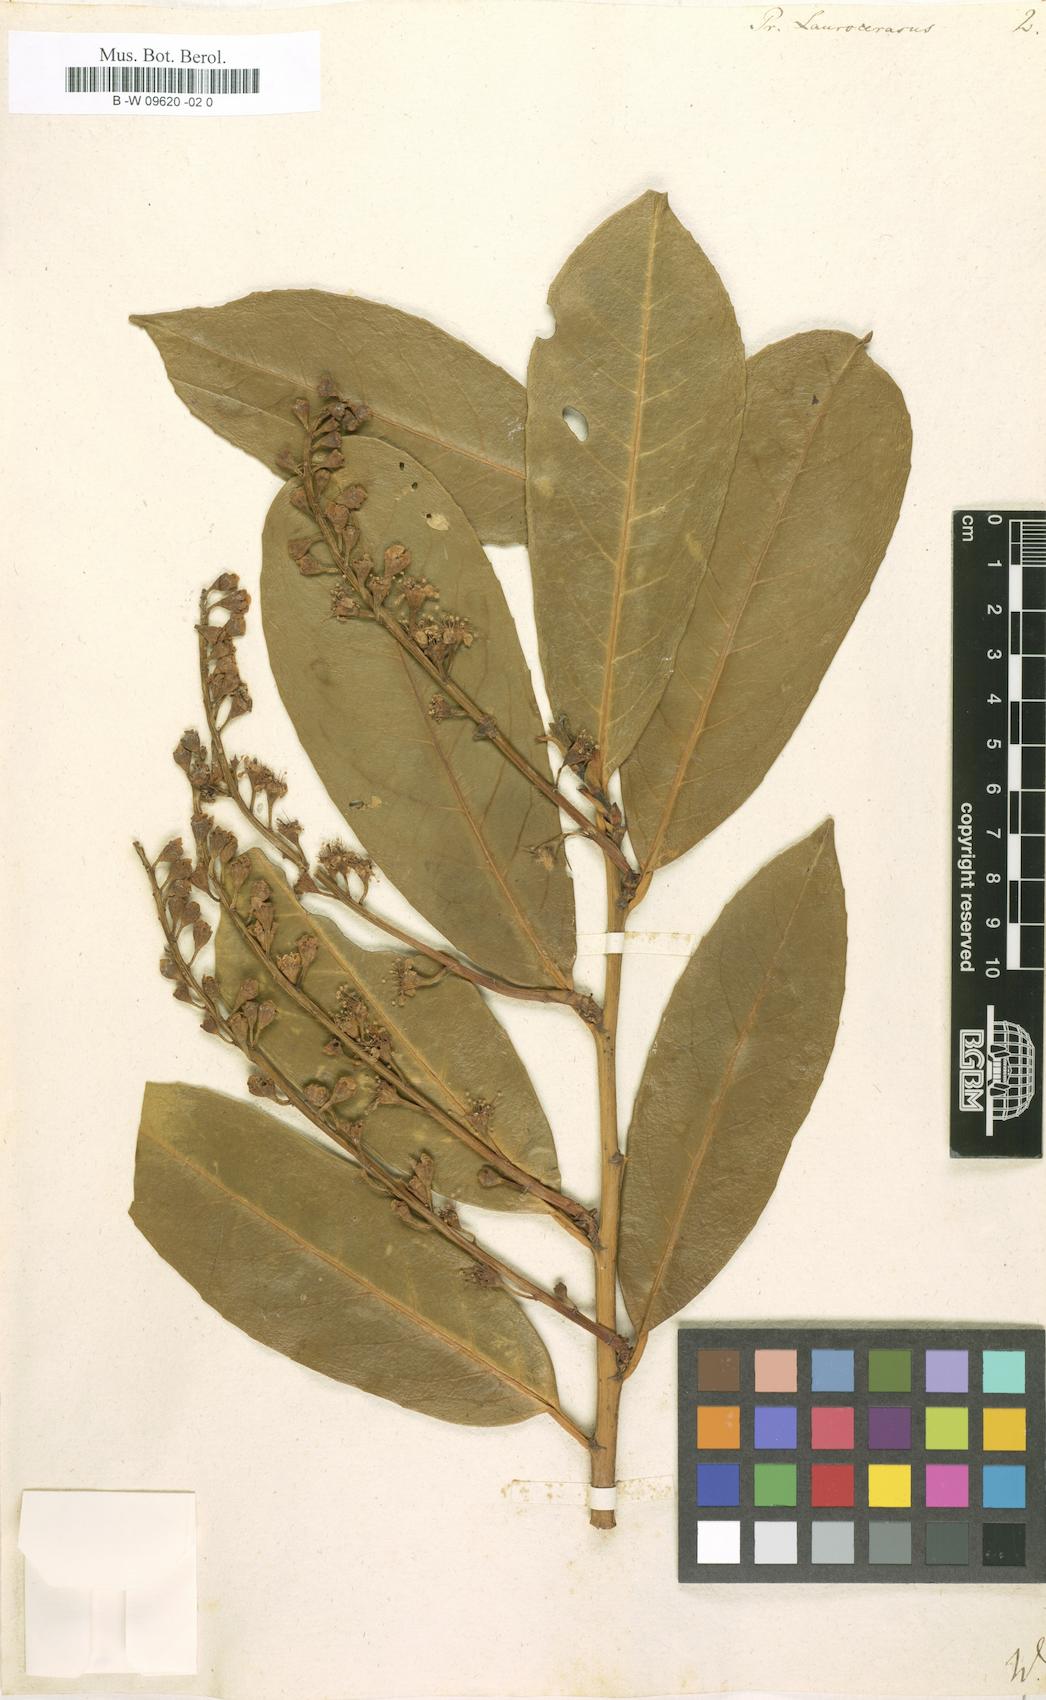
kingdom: Plantae
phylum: Tracheophyta
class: Magnoliopsida
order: Rosales
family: Rosaceae
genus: Prunus
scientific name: Prunus laurocerasus
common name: Cherry laurel
